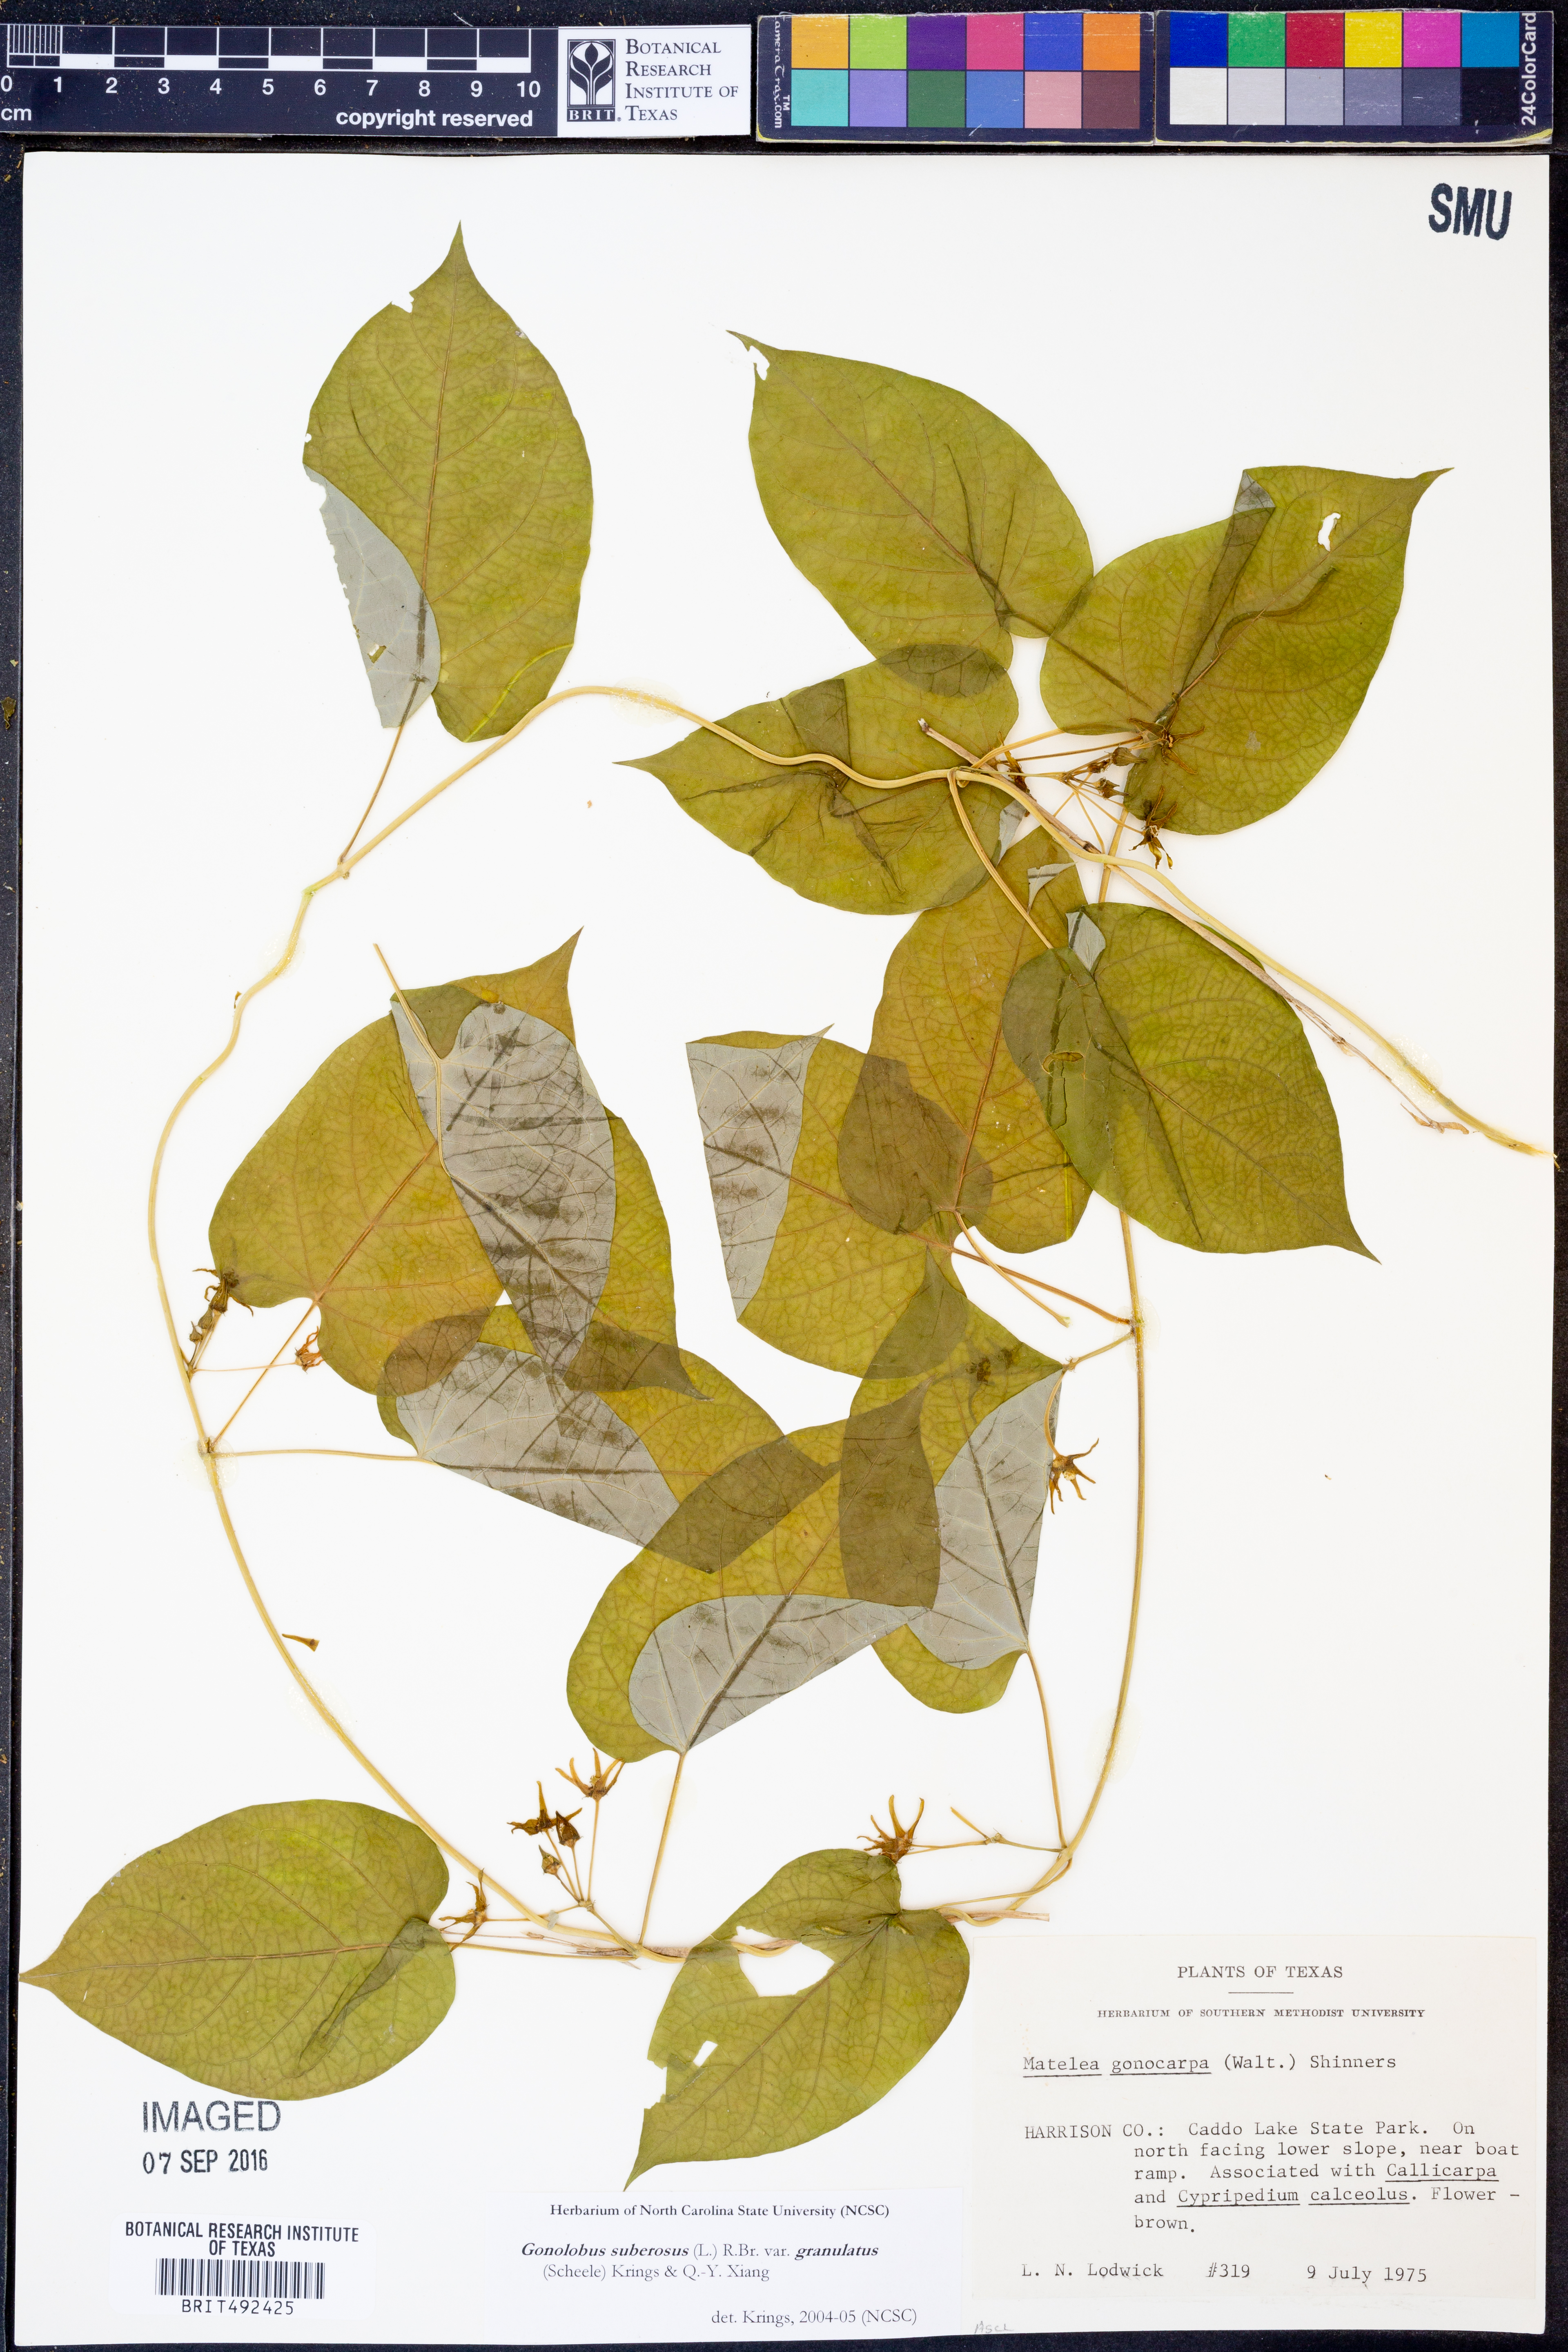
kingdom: Plantae
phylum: Tracheophyta
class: Magnoliopsida
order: Gentianales
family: Apocynaceae
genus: Gonolobus
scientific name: Gonolobus suberosus
